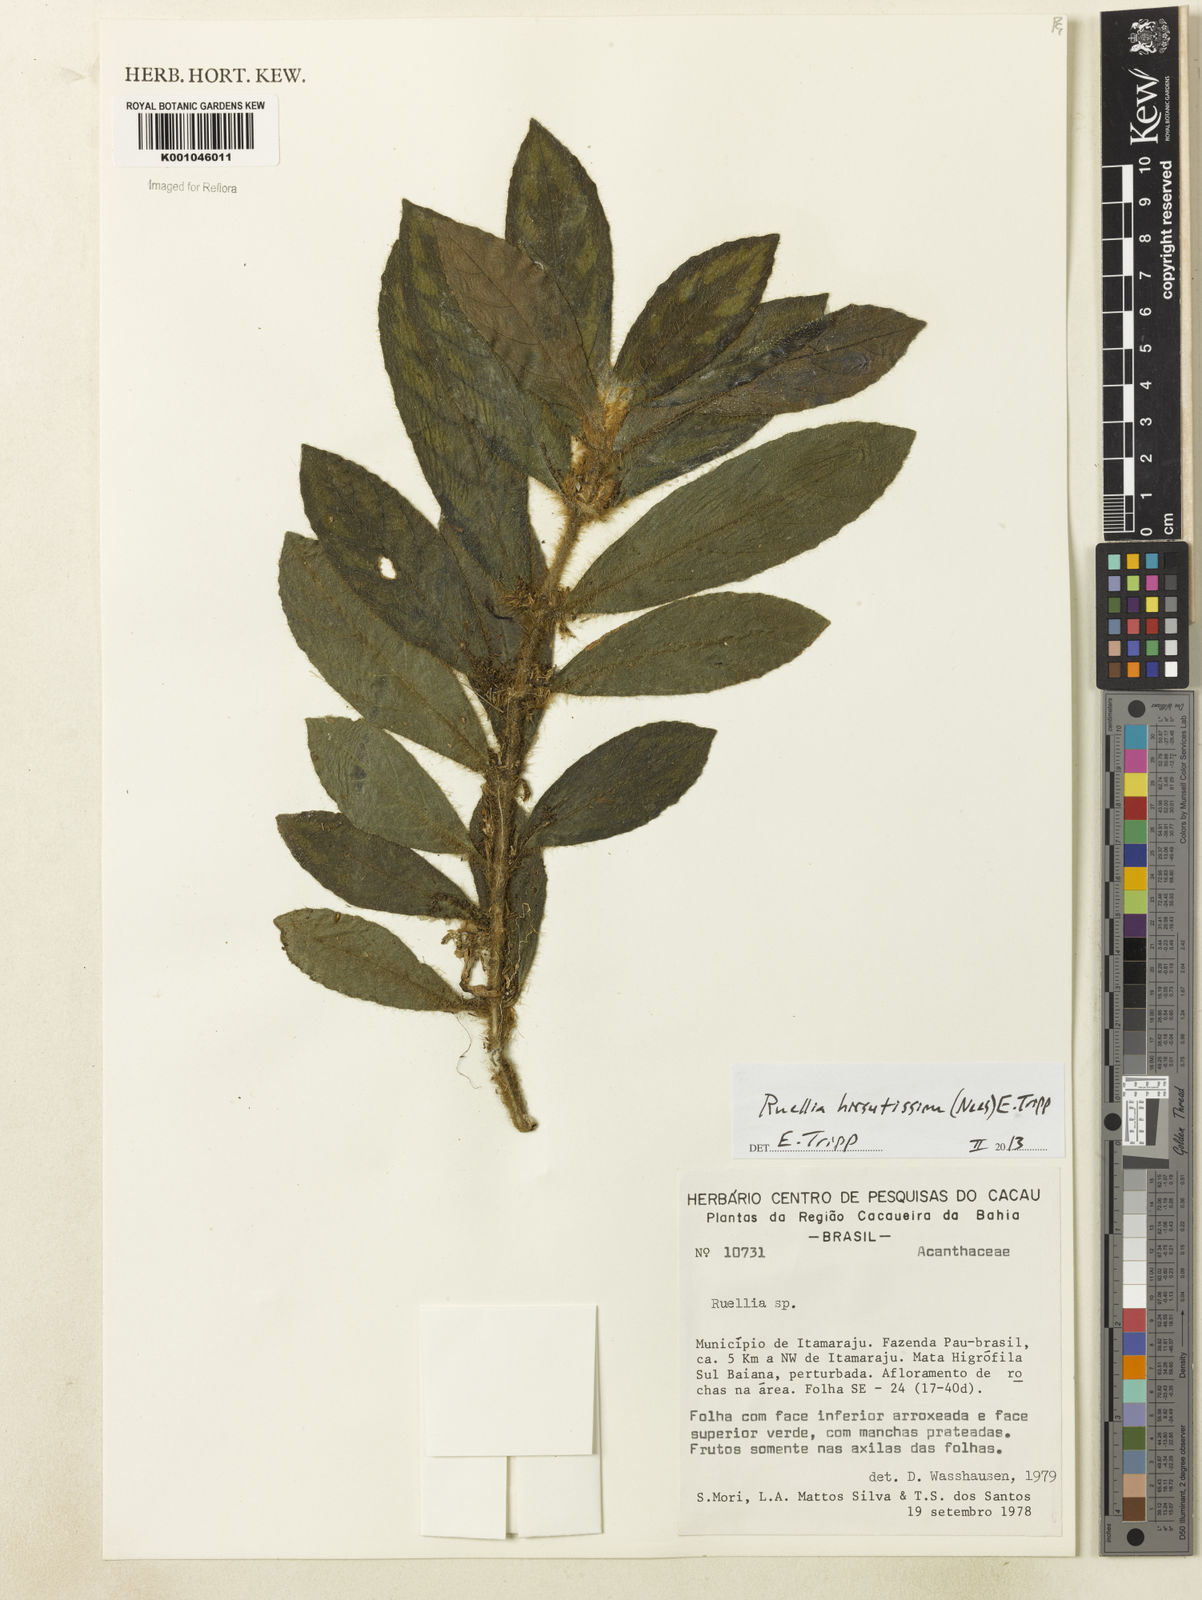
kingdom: Plantae
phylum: Tracheophyta
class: Magnoliopsida
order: Lamiales
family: Acanthaceae
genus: Ruellia
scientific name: Ruellia hirsutissima
